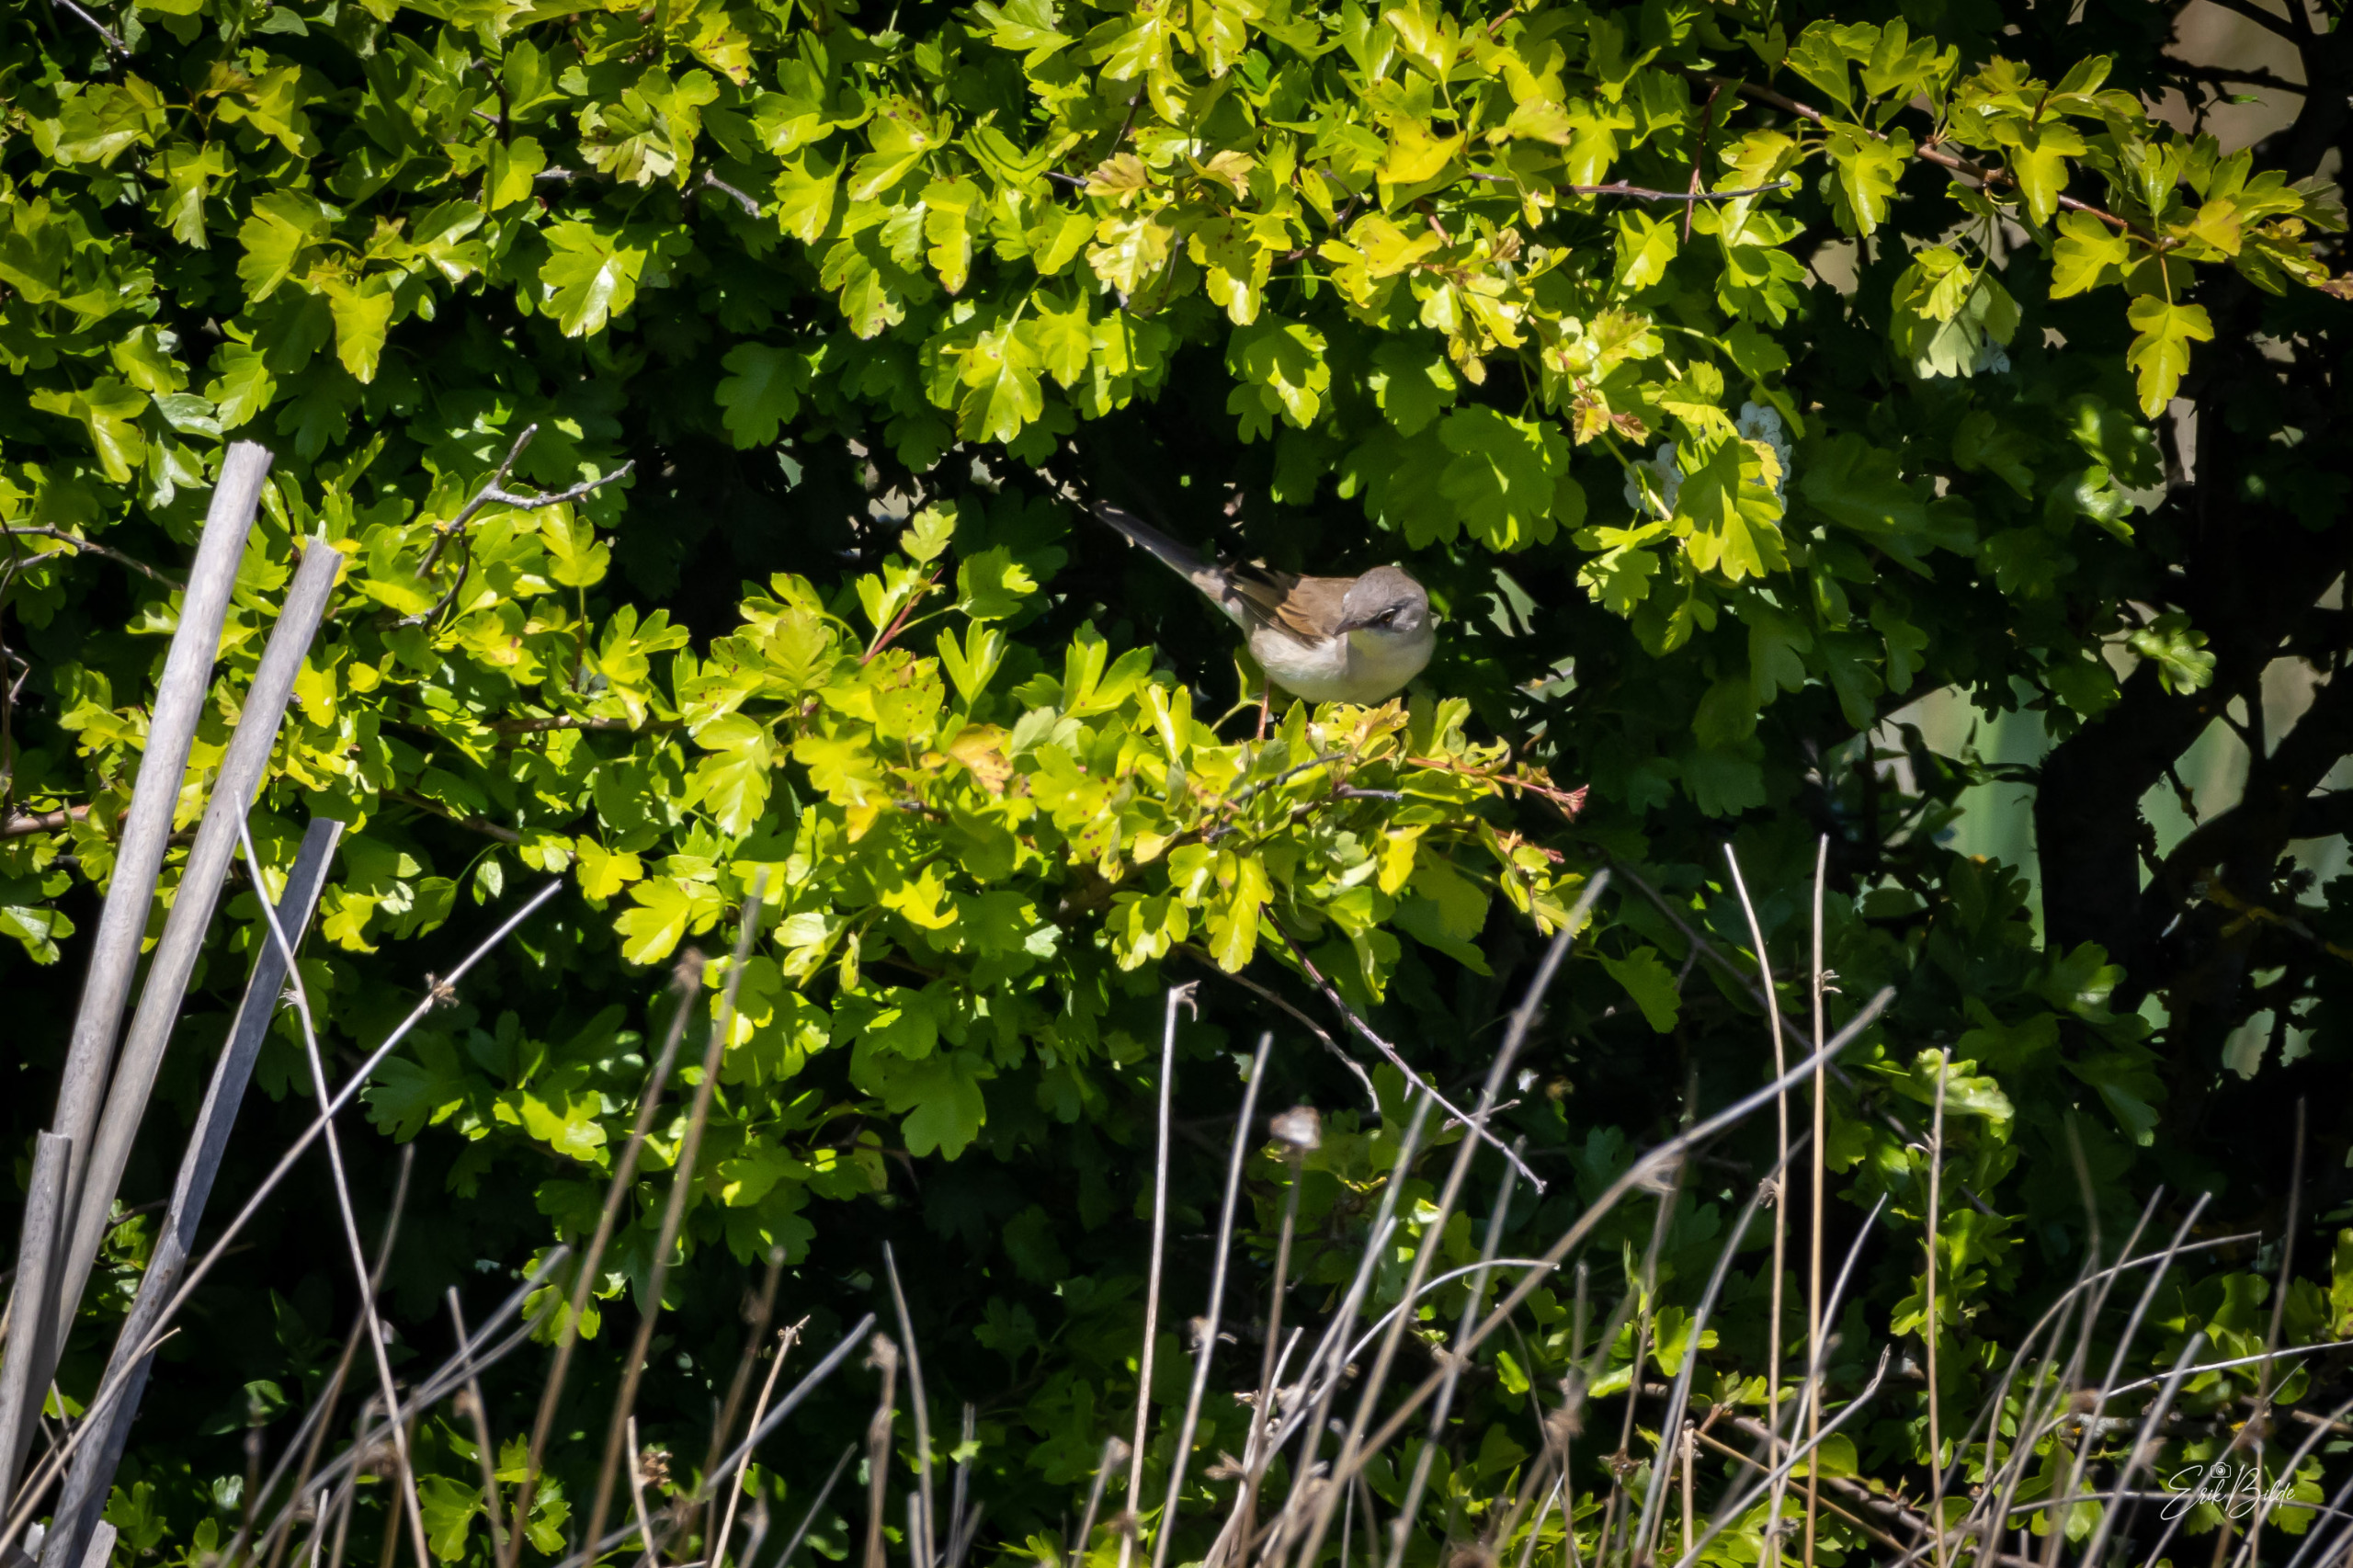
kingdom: Animalia
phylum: Chordata
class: Aves
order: Passeriformes
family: Sylviidae
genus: Sylvia
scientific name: Sylvia communis
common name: Tornsanger
